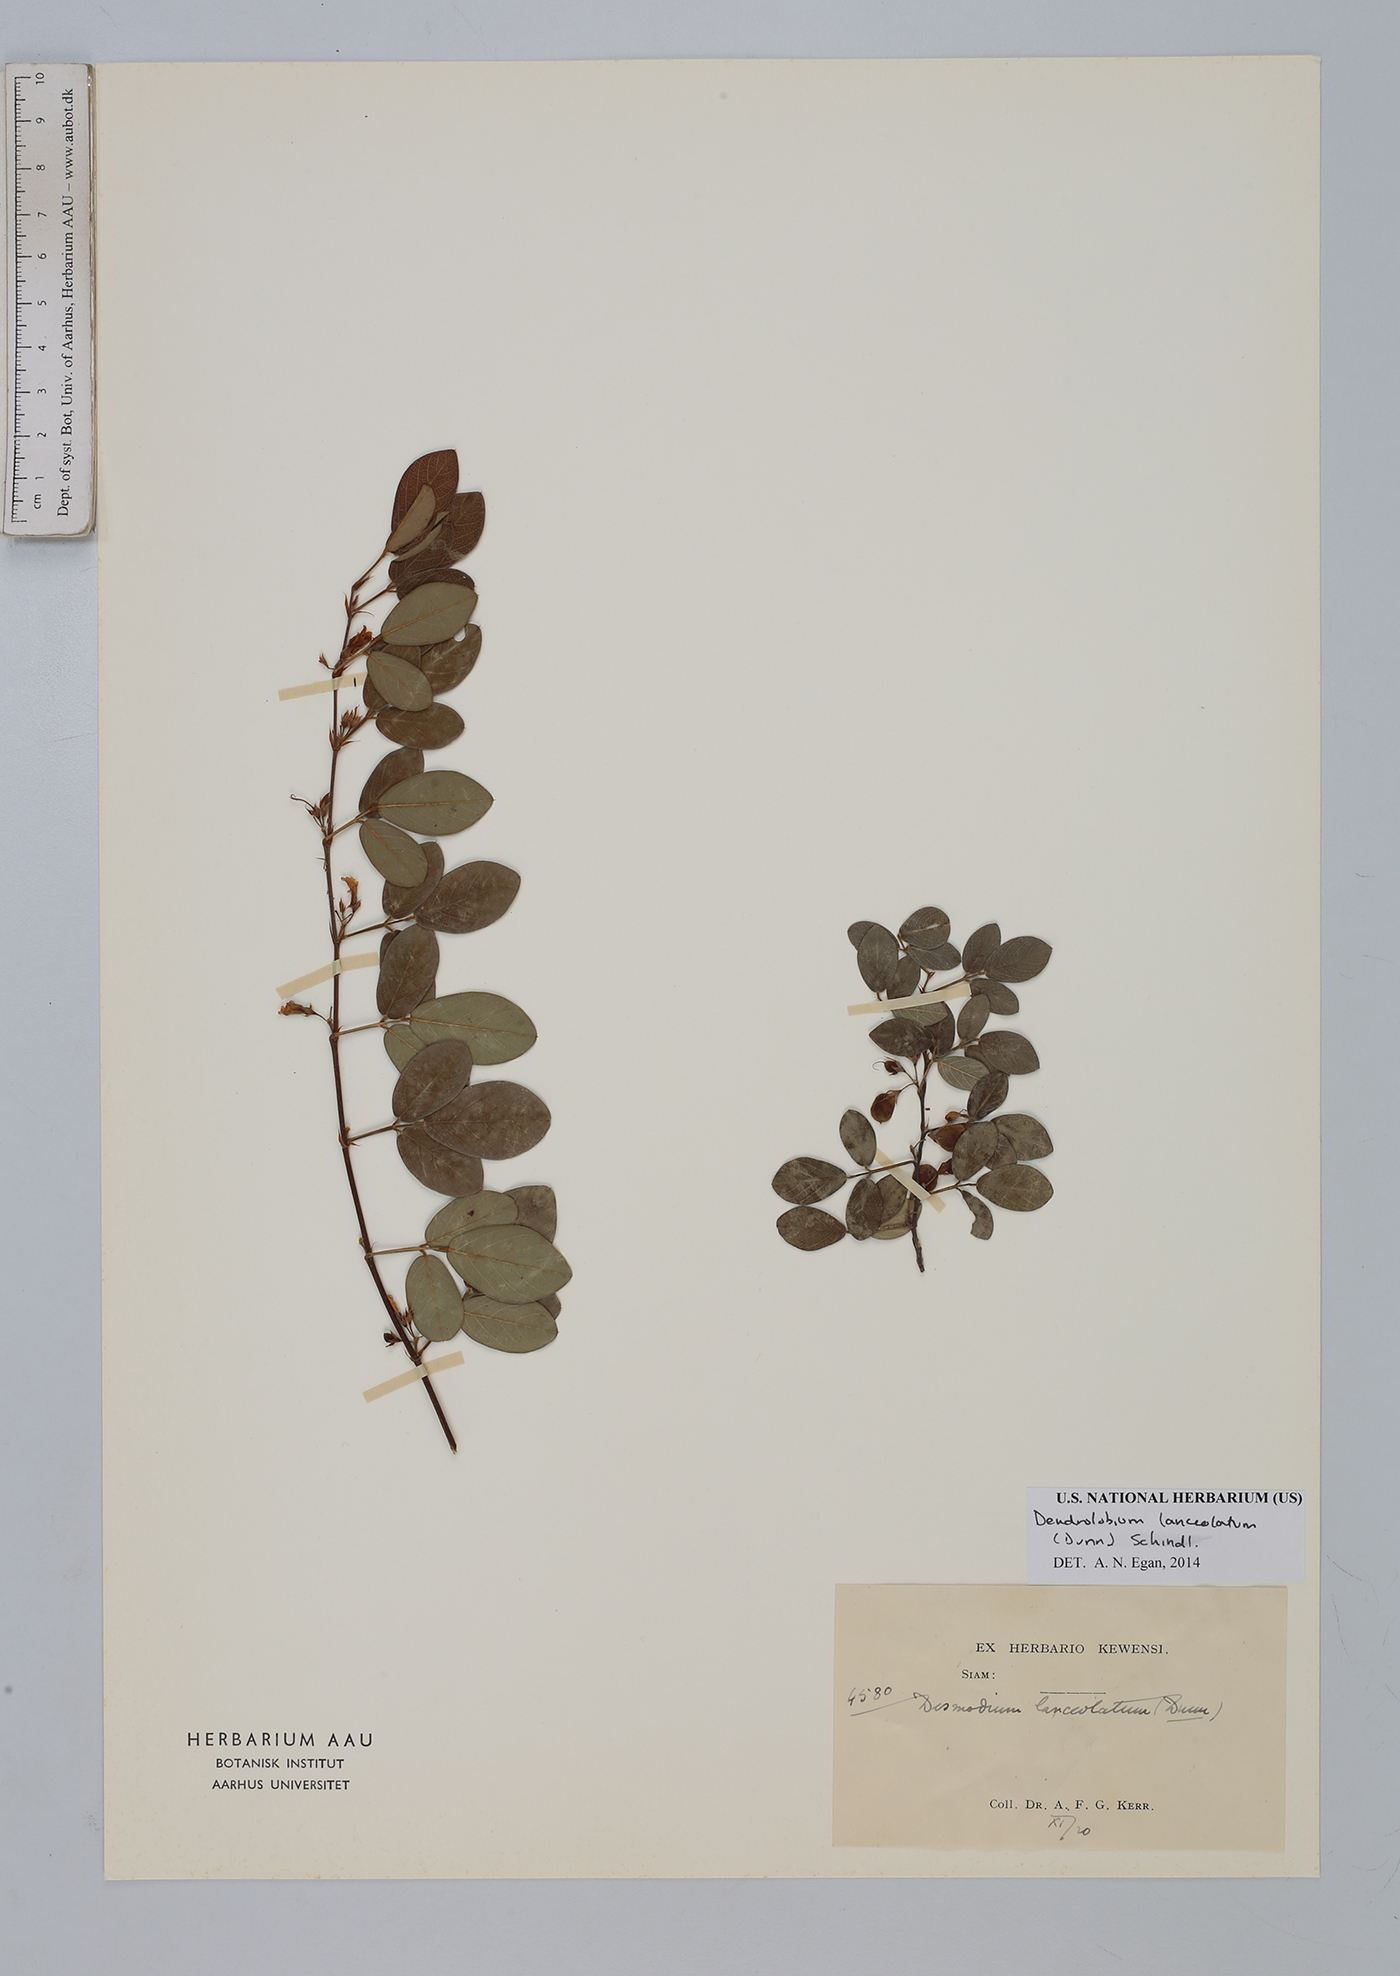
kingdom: Plantae
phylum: Tracheophyta
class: Magnoliopsida
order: Fabales
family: Fabaceae
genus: Dendrolobium
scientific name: Dendrolobium lanceolatum
